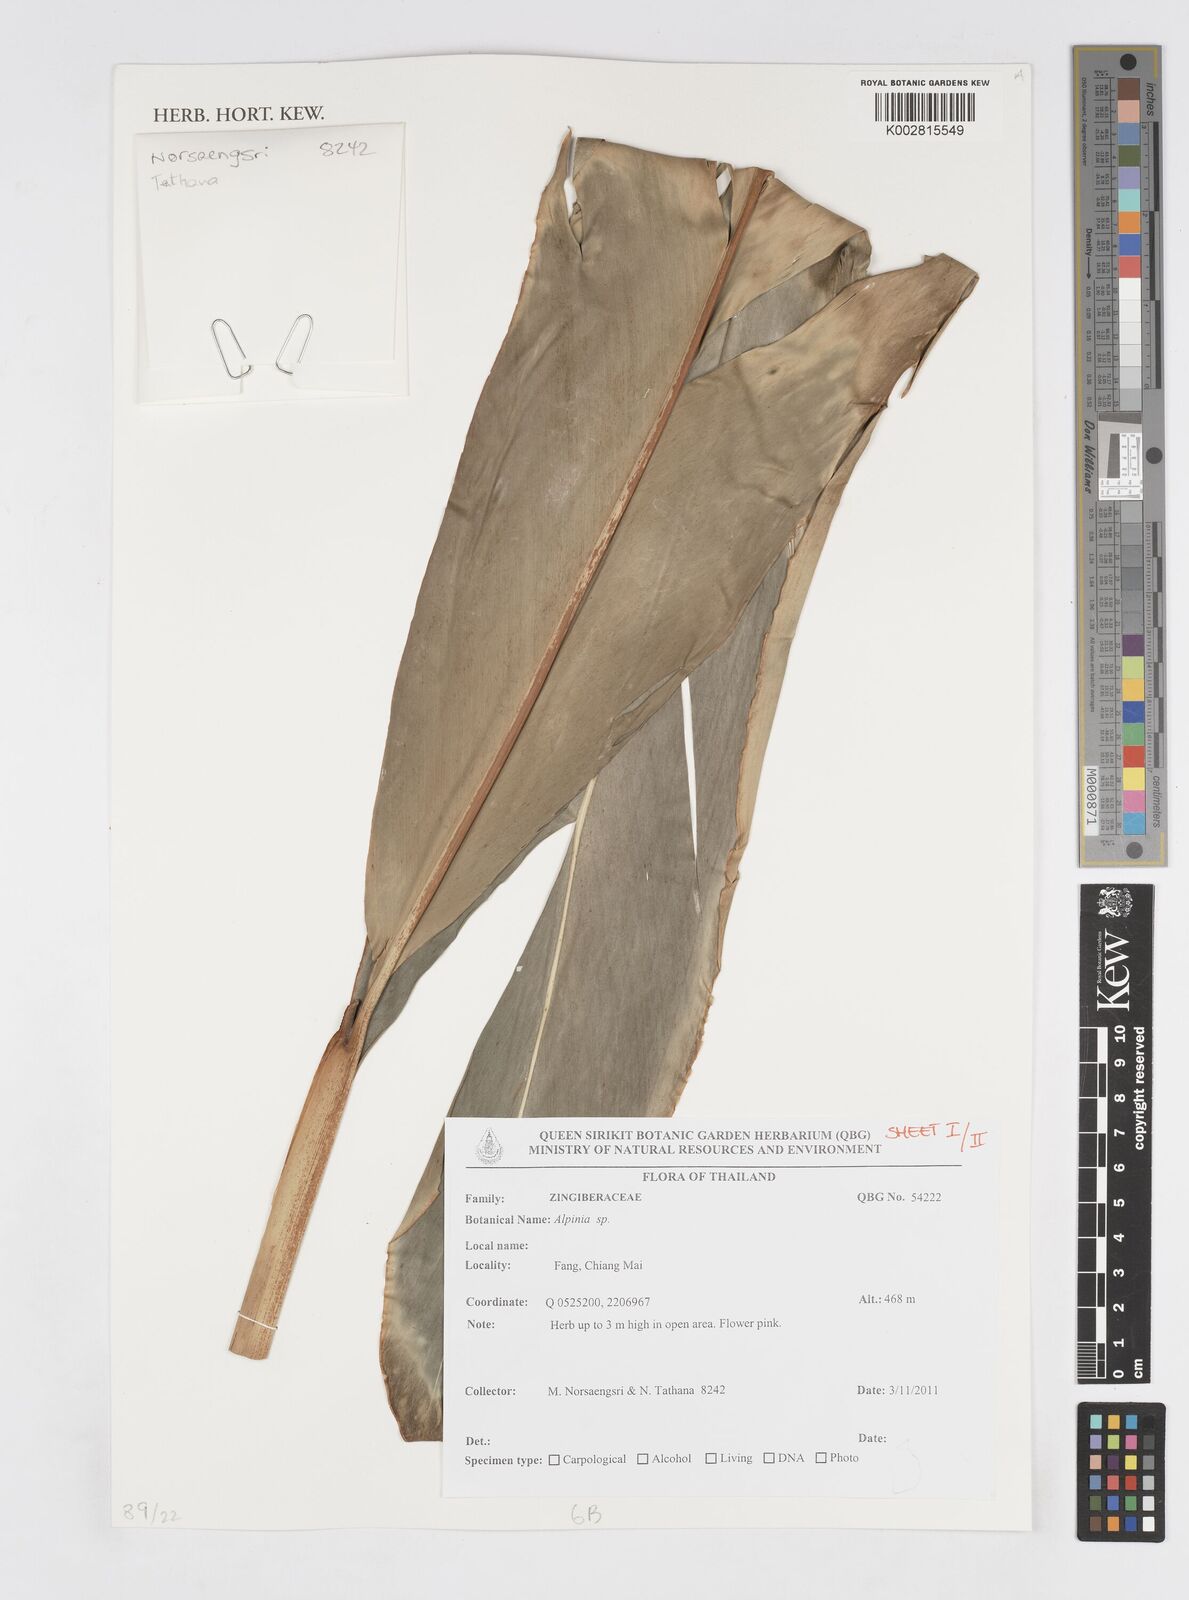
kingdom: Plantae
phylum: Tracheophyta
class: Liliopsida
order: Zingiberales
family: Zingiberaceae
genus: Alpinia
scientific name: Alpinia
